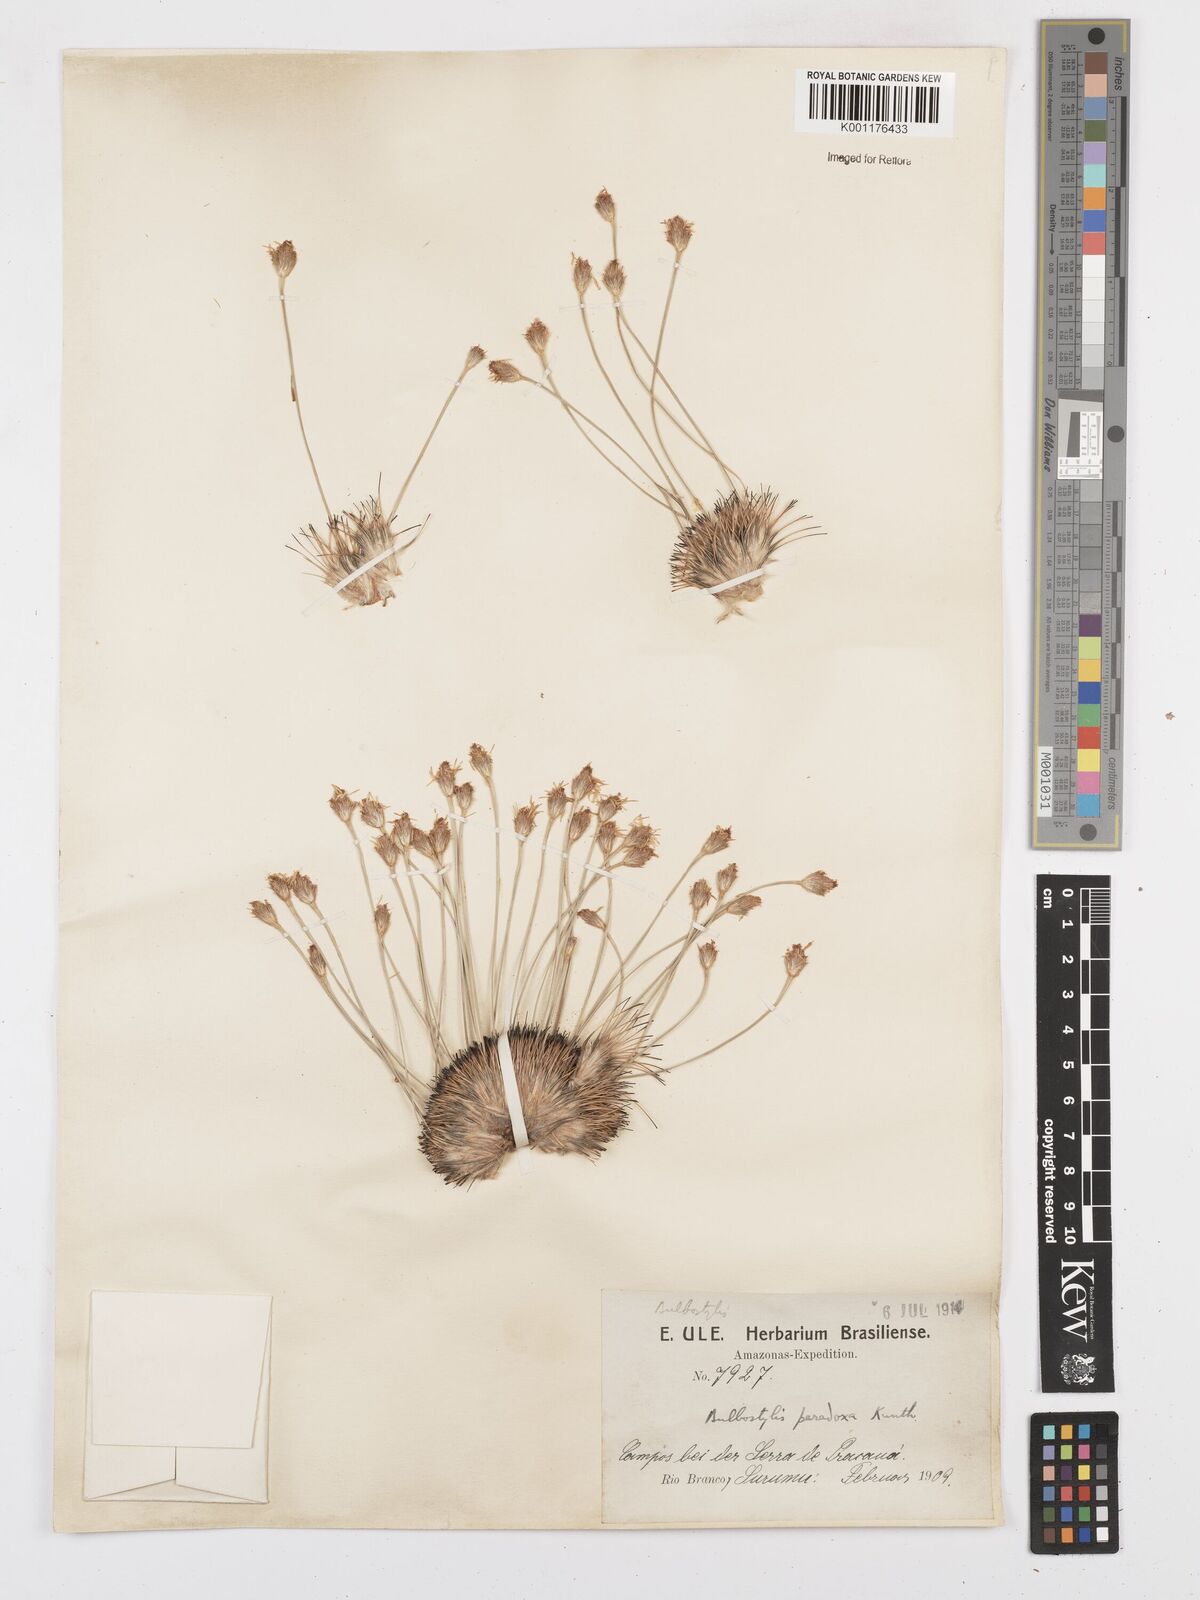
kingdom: Plantae
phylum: Tracheophyta
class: Liliopsida
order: Poales
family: Cyperaceae
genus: Bulbostylis
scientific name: Bulbostylis paradoxa
